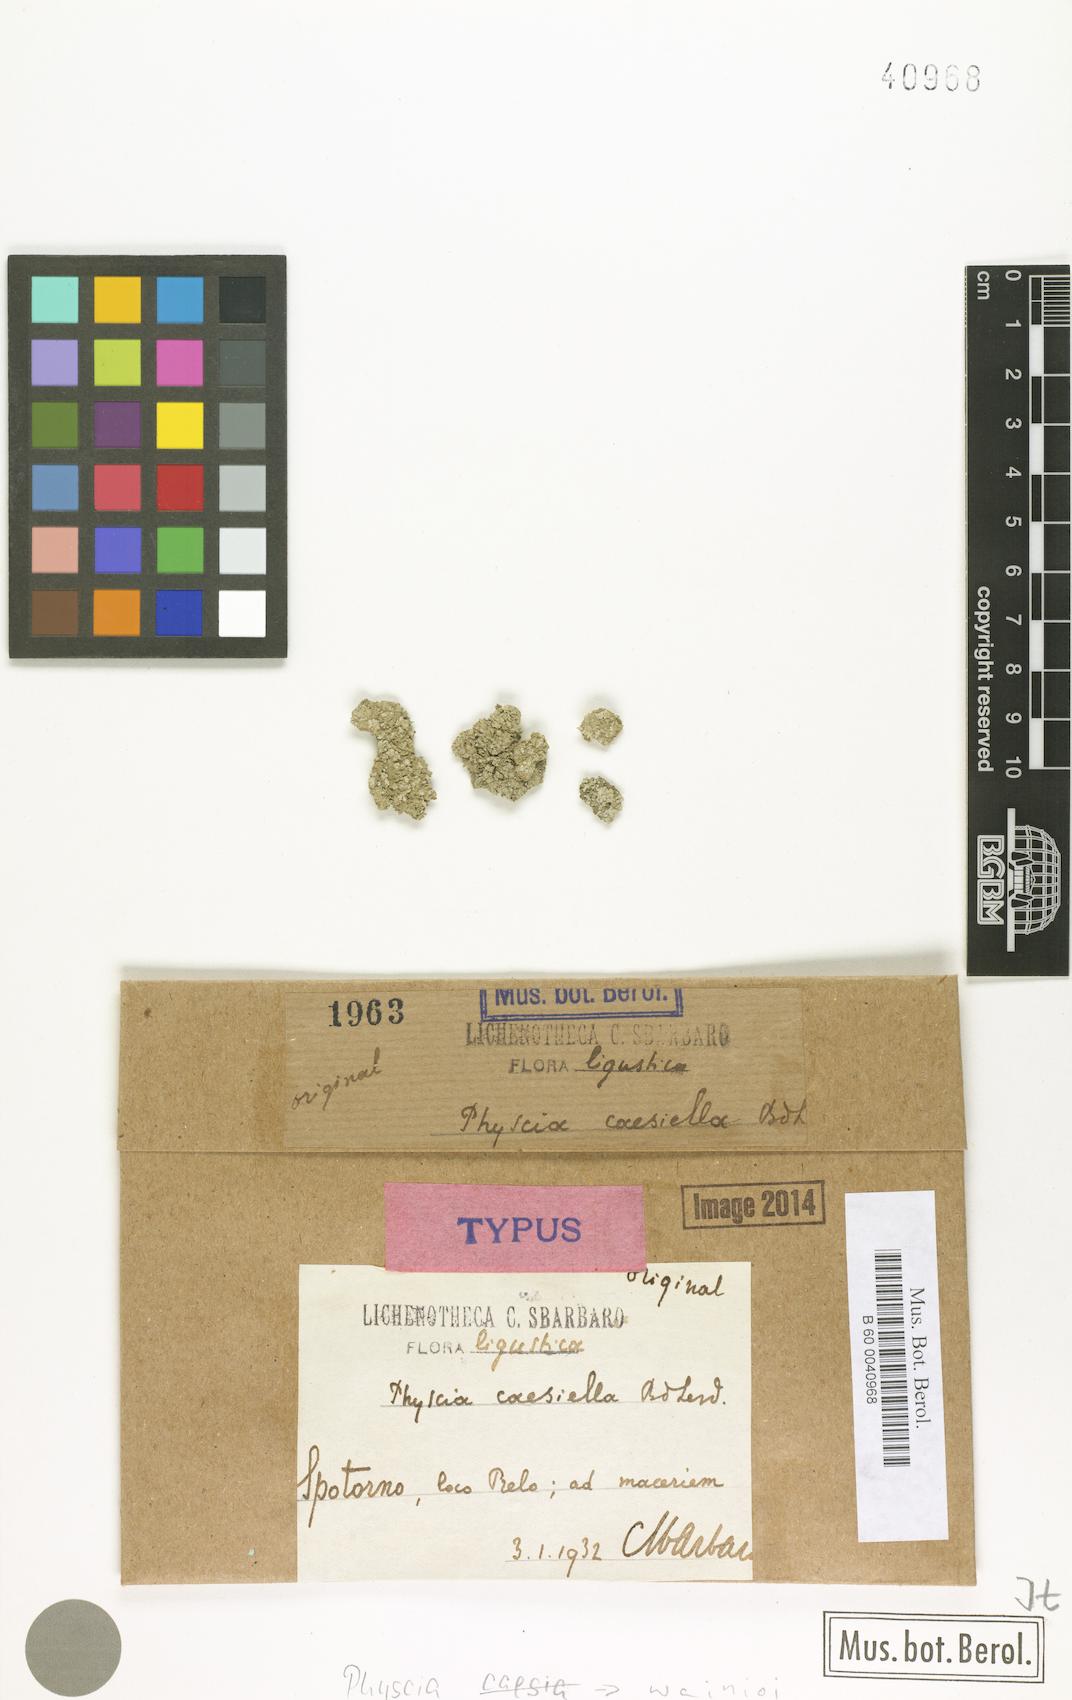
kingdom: Fungi
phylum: Ascomycota
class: Lecanoromycetes
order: Caliciales
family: Physciaceae
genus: Physcia
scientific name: Physcia caesia
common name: Blue-gray rosette lichen
